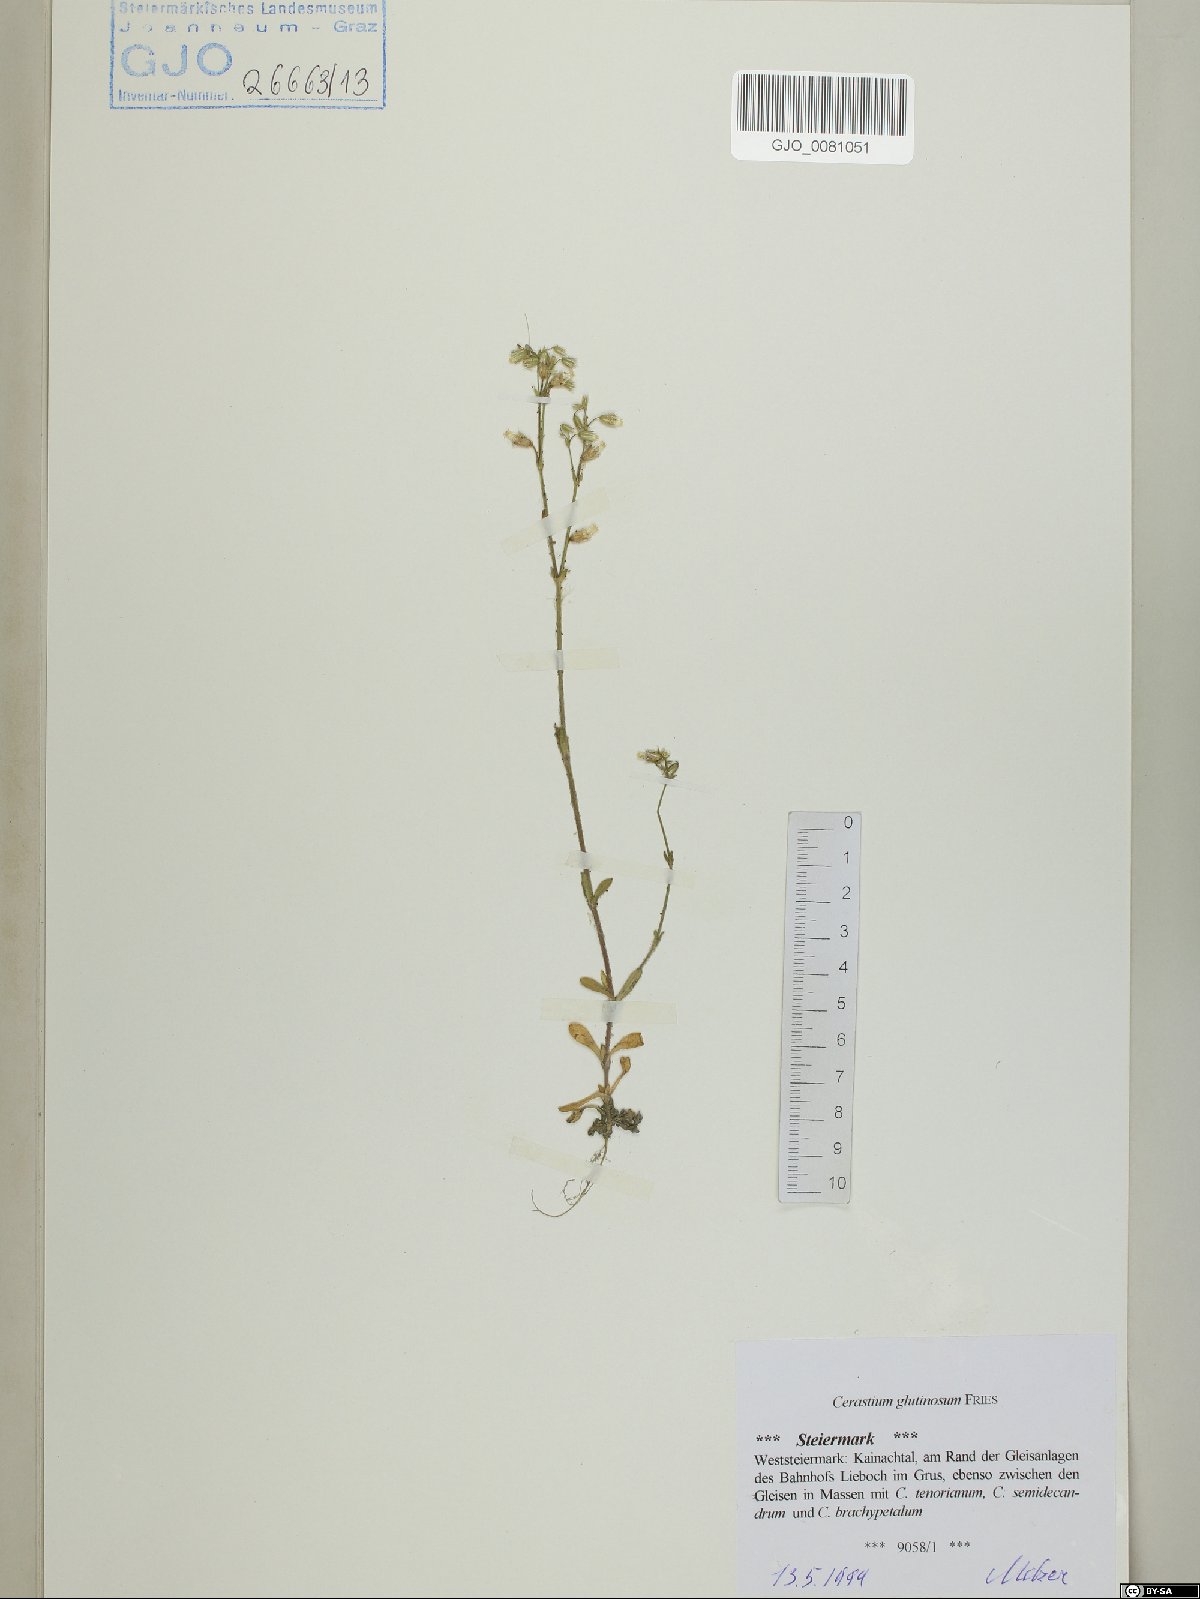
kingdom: Plantae
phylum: Tracheophyta
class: Magnoliopsida
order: Caryophyllales
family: Caryophyllaceae
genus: Cerastium
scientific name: Cerastium glutinosum
